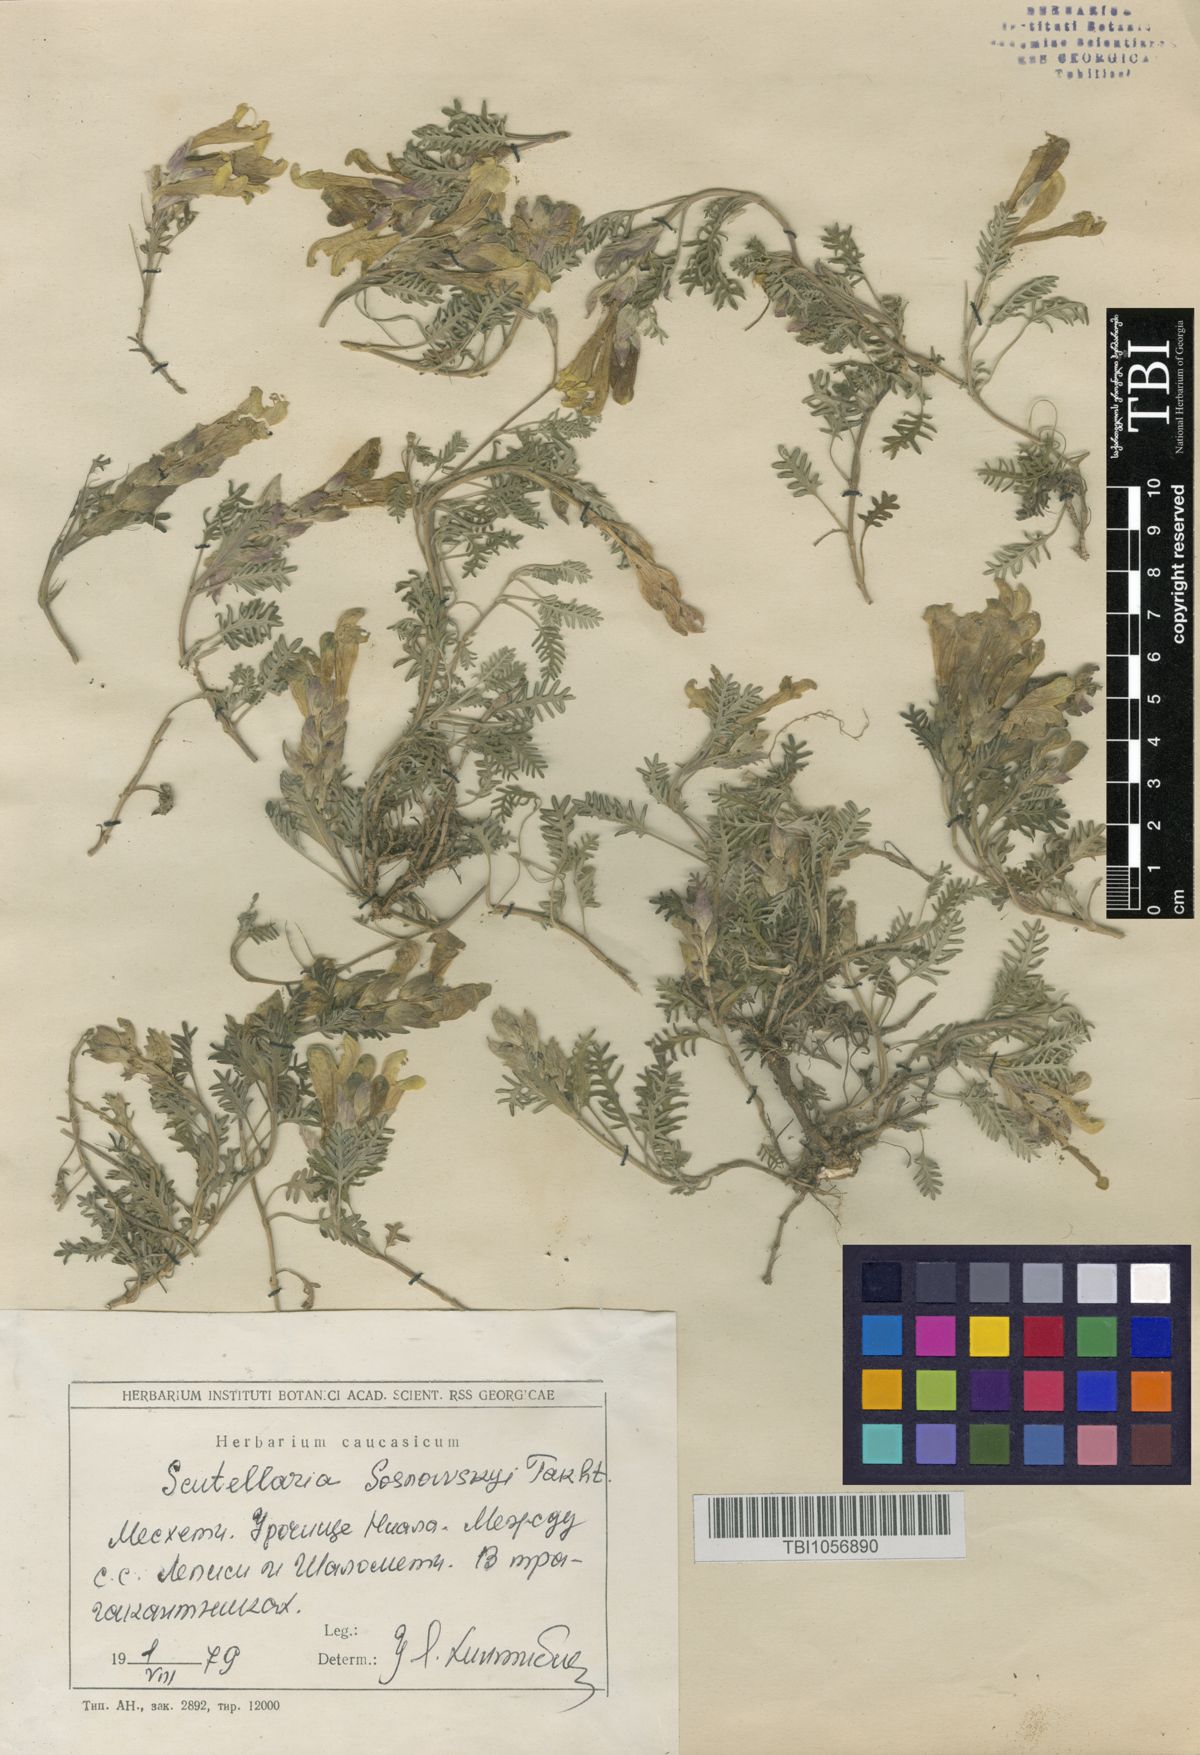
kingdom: Plantae
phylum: Tracheophyta
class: Magnoliopsida
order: Lamiales
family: Lamiaceae
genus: Scutellaria
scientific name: Scutellaria sosnowskyi
